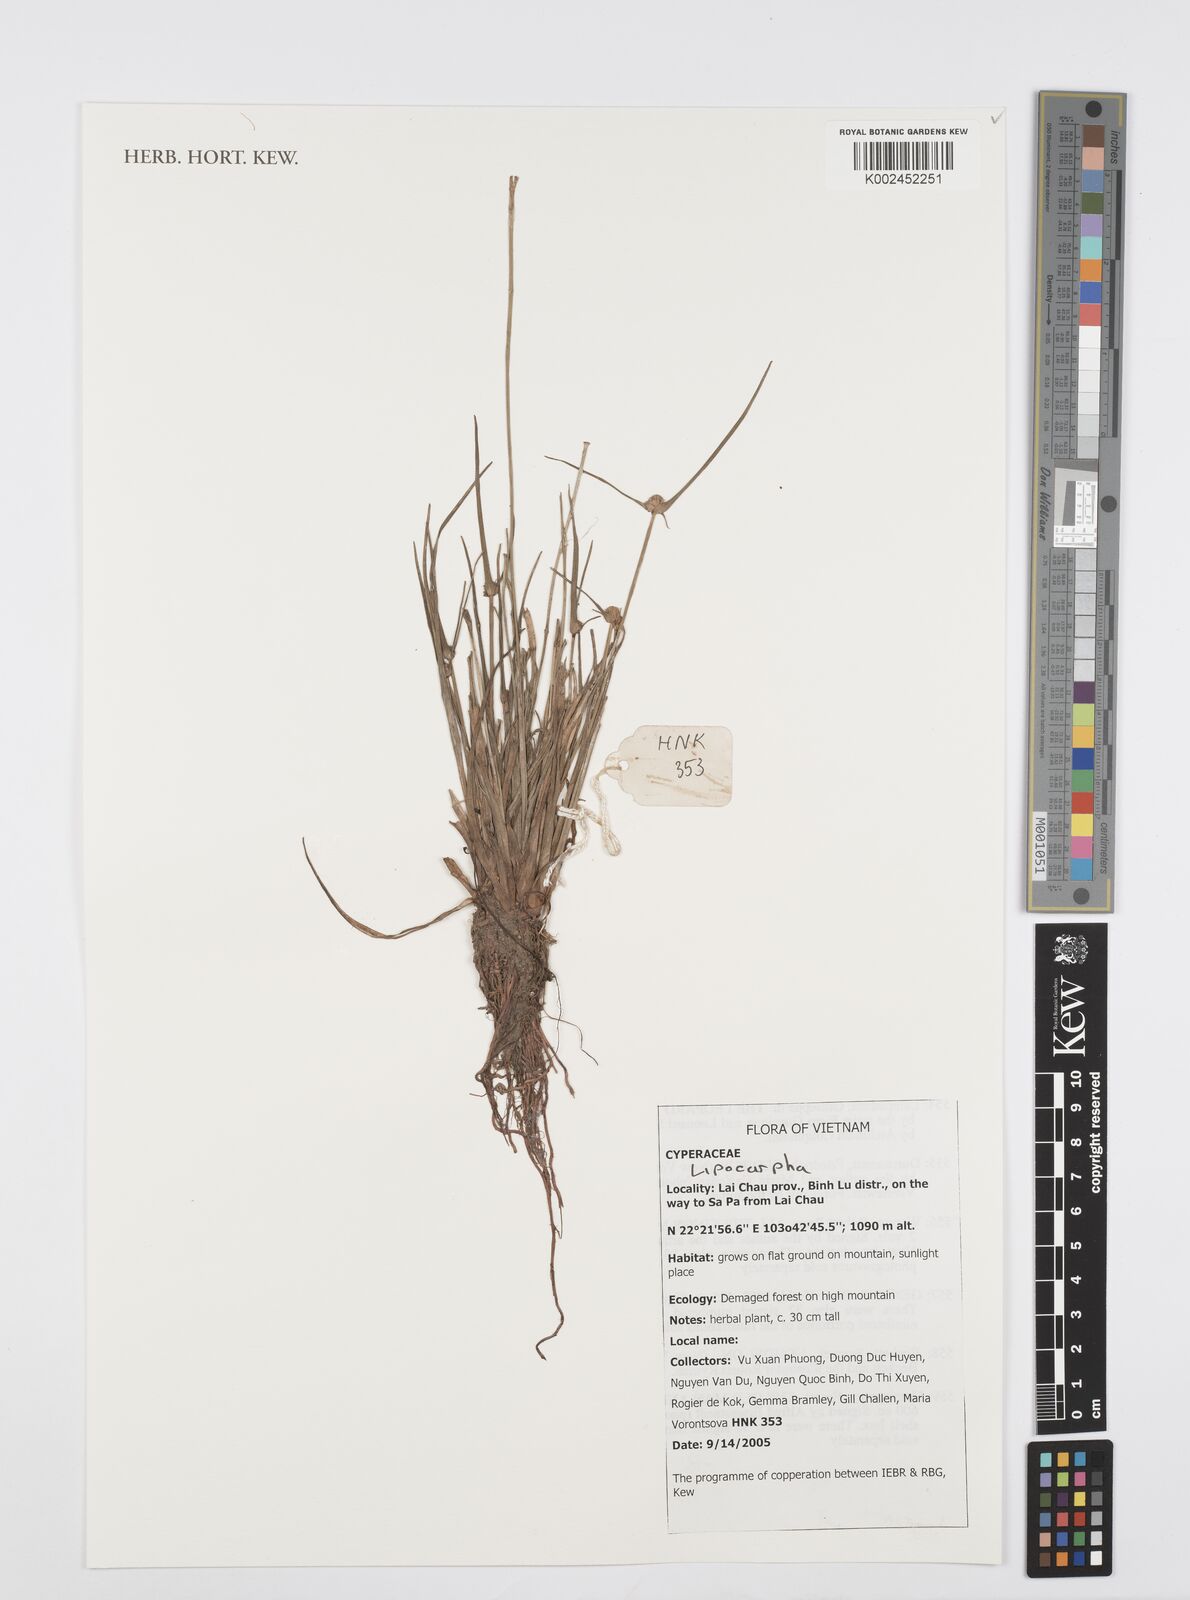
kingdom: Plantae
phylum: Tracheophyta
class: Liliopsida
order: Poales
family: Cyperaceae
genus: Cyperus
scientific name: Cyperus
